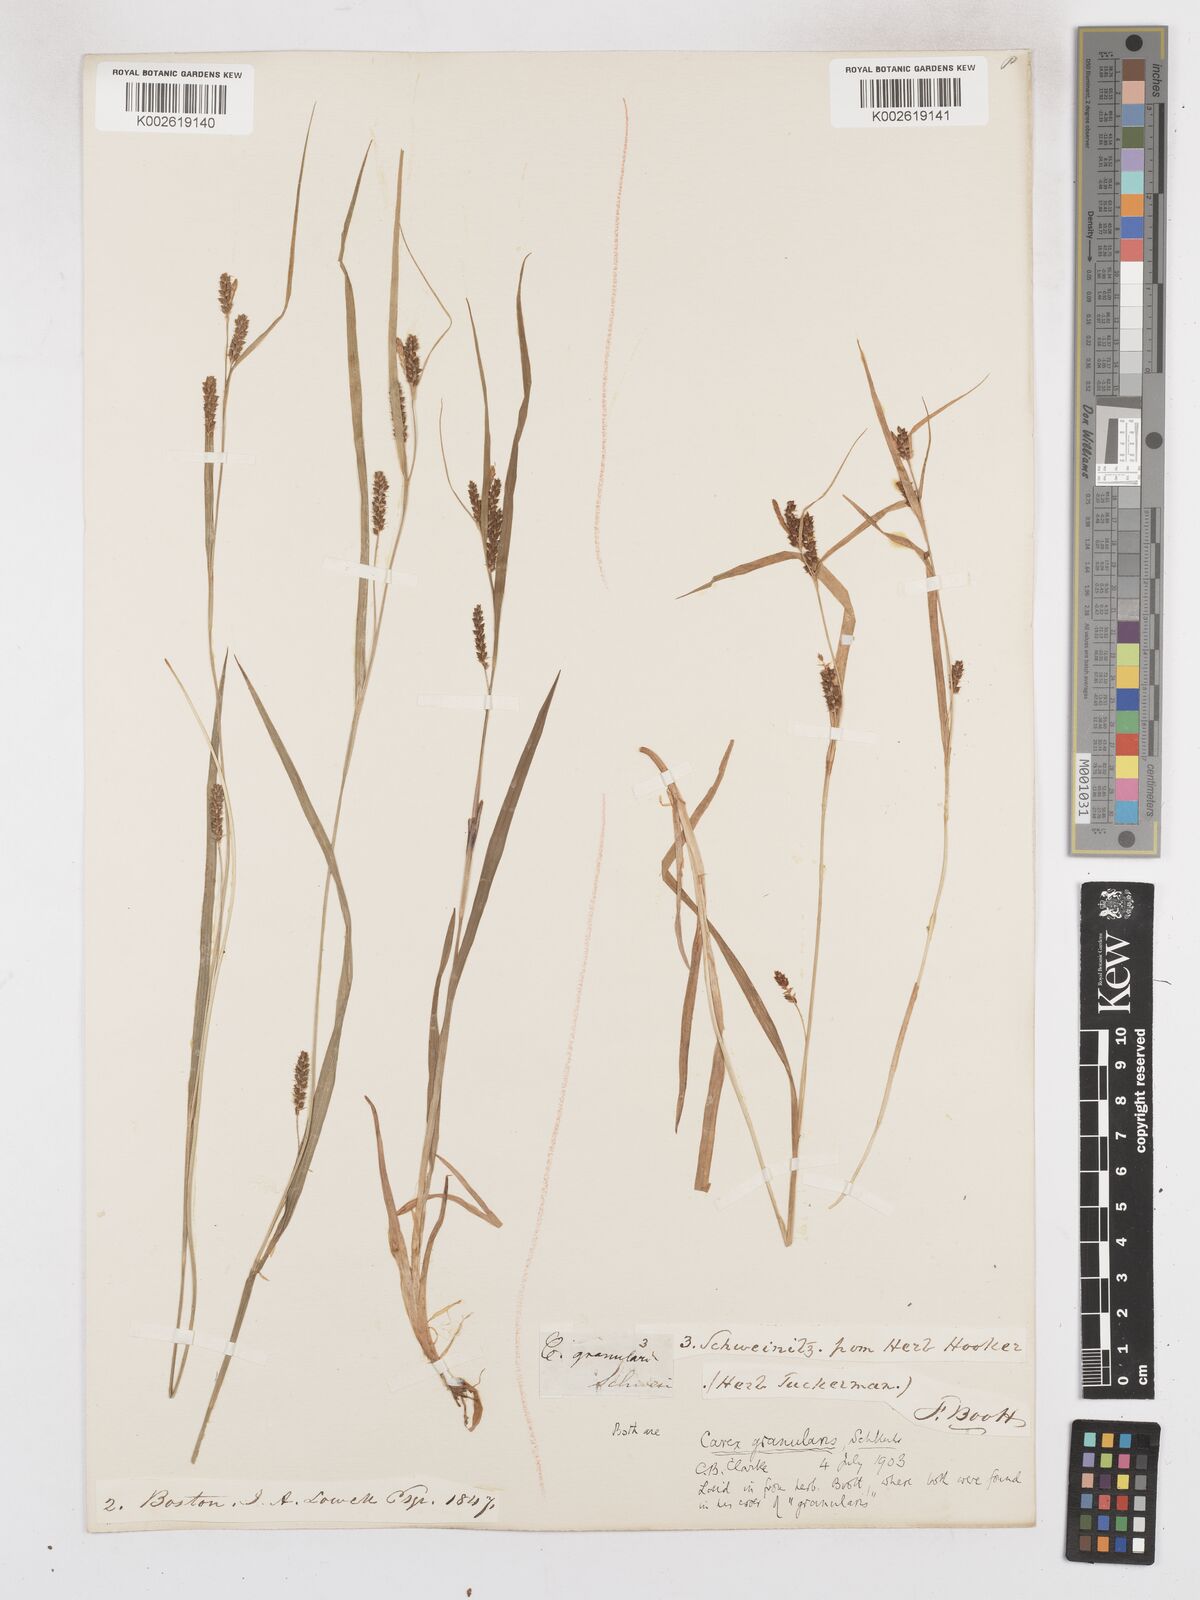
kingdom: Plantae
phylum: Tracheophyta
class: Liliopsida
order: Poales
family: Cyperaceae
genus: Carex
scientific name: Carex granularis
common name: Granular sedge
